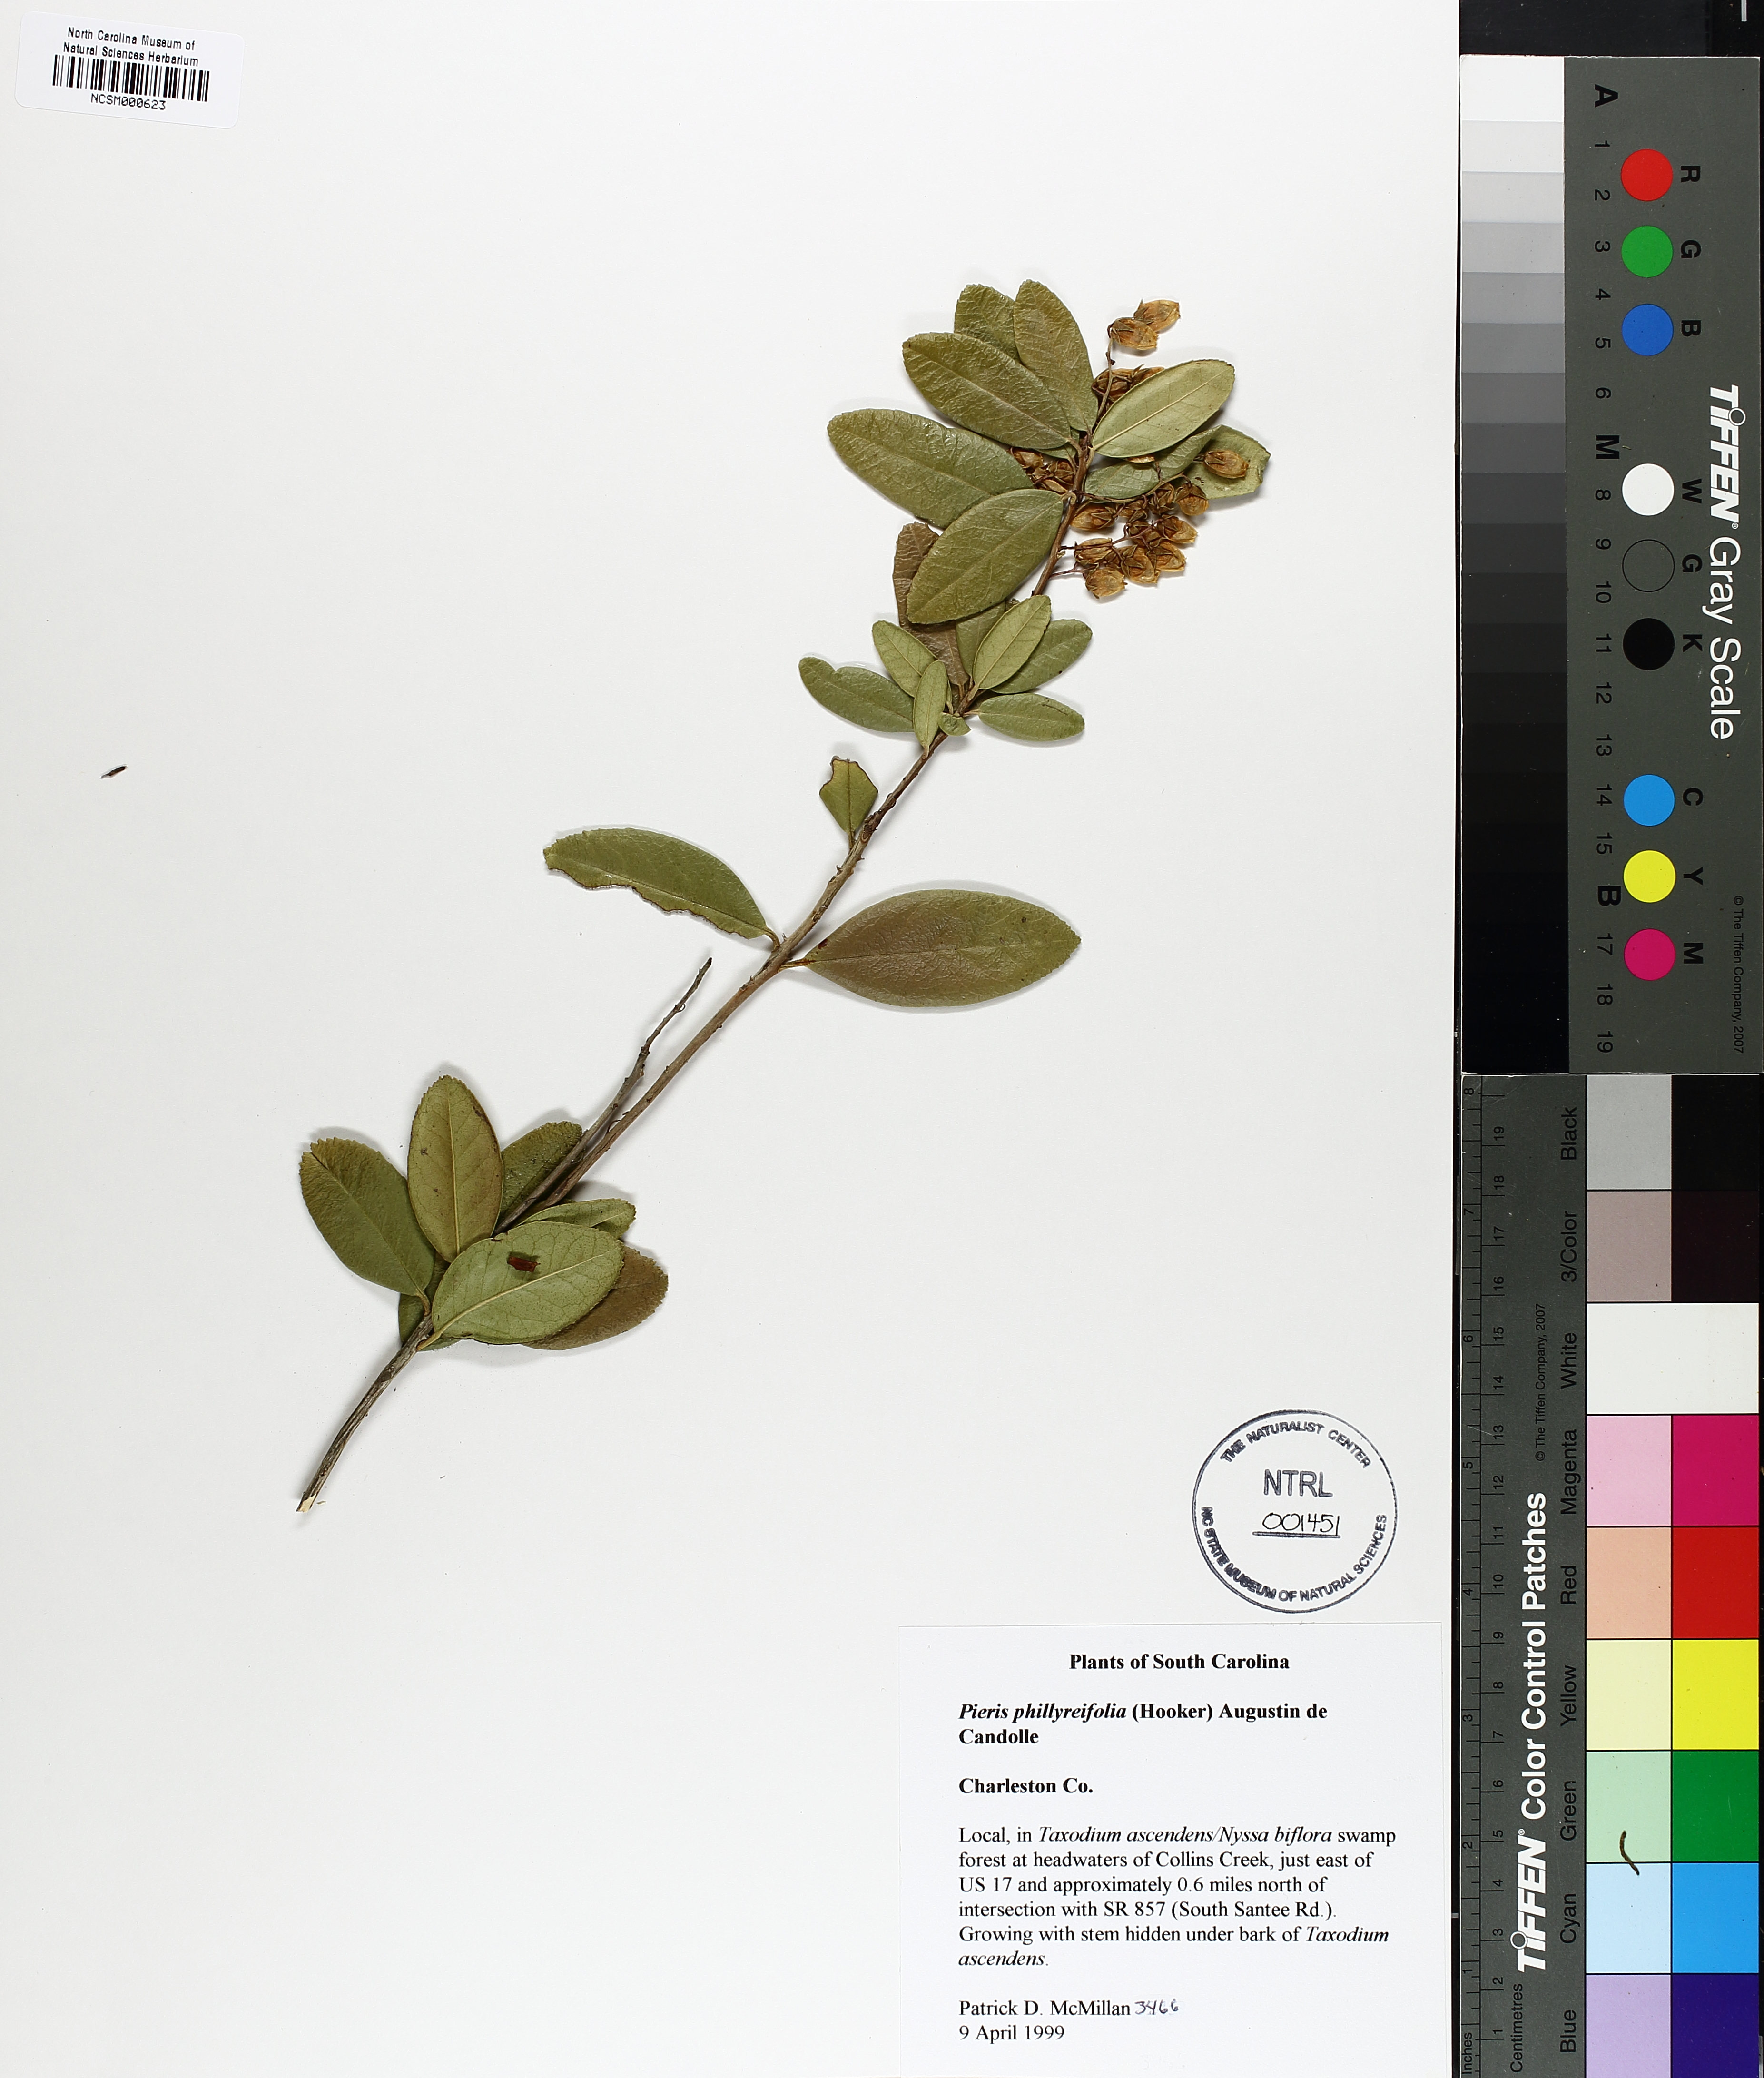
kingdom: Plantae
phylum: Tracheophyta
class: Magnoliopsida
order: Ericales
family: Ericaceae
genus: Pieris
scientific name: Pieris phillyreifolia
